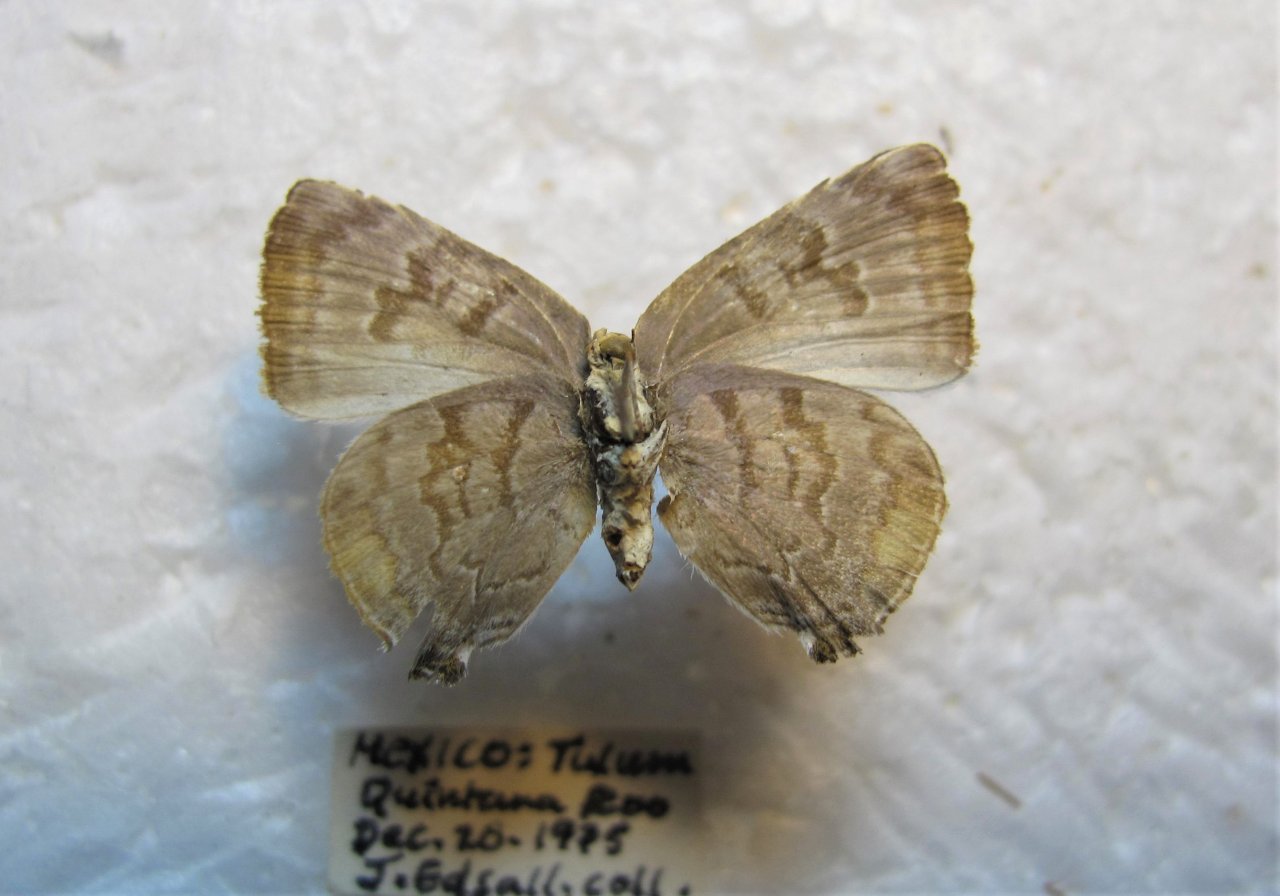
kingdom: Animalia
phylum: Arthropoda
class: Insecta
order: Lepidoptera
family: Lycaenidae
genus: Rekoa
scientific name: Rekoa palegon
